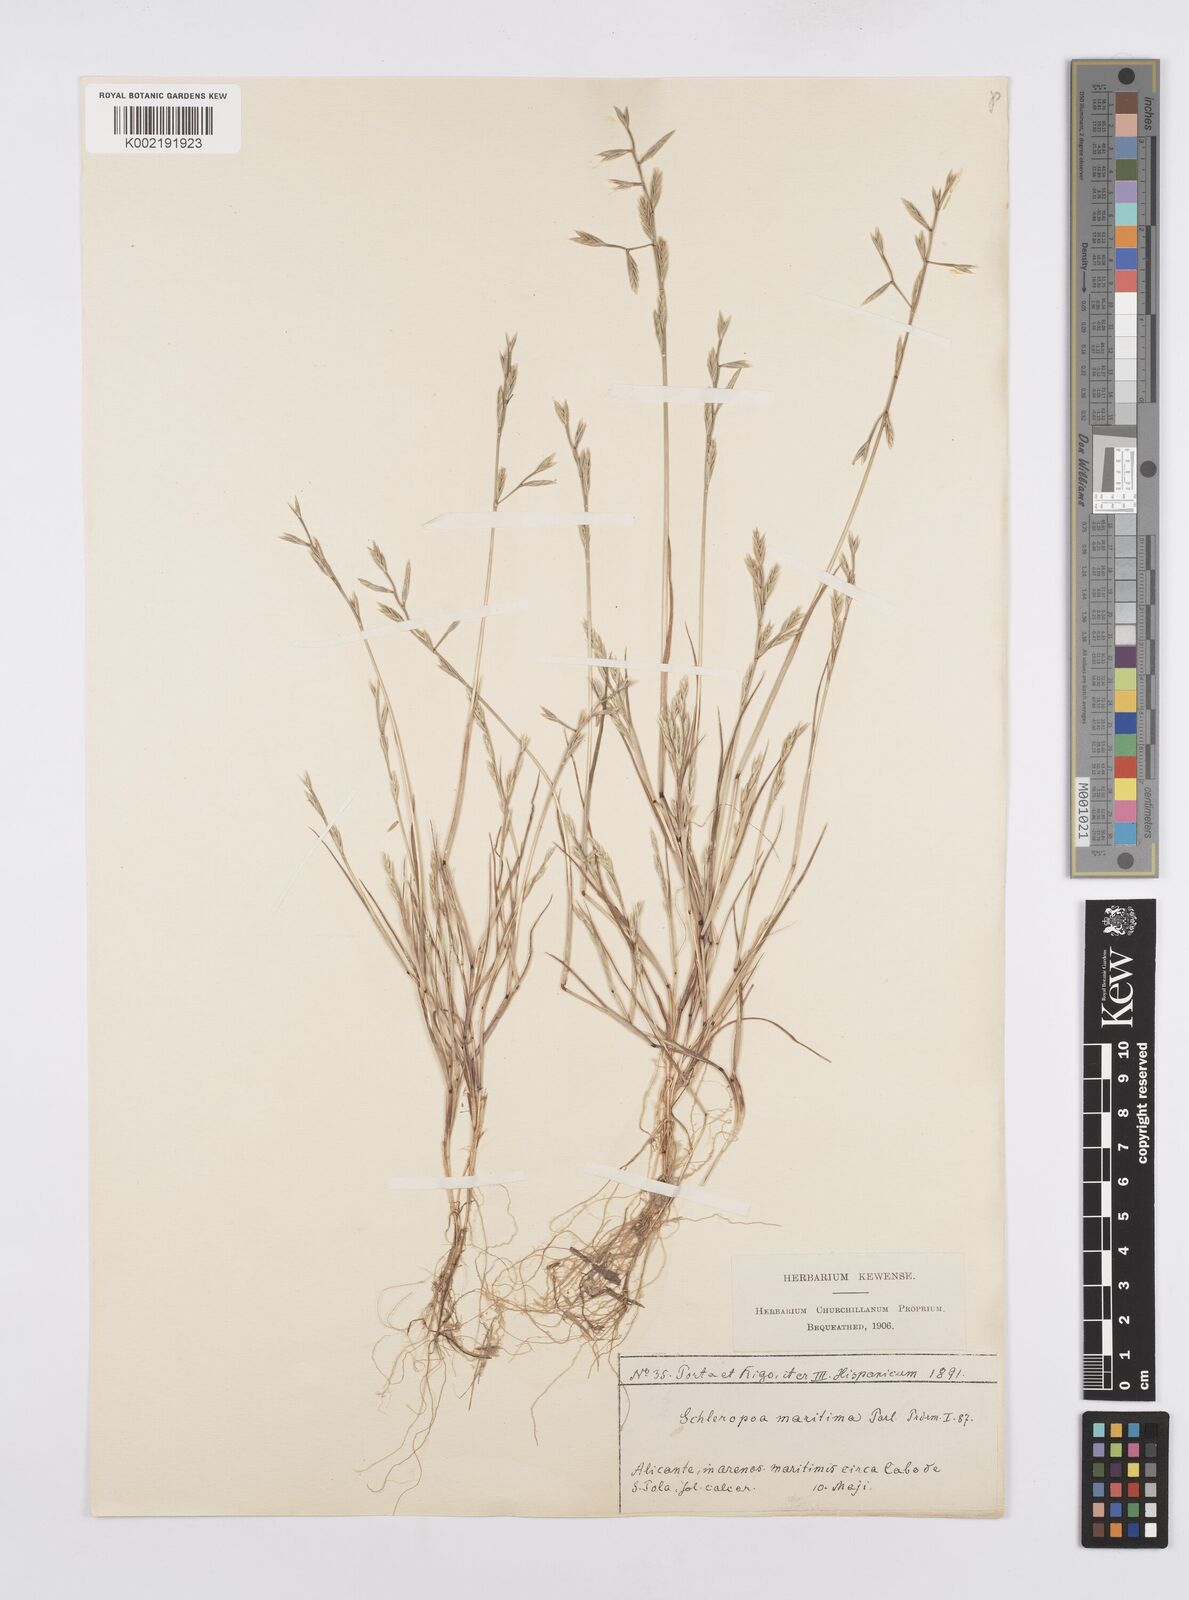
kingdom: Plantae
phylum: Tracheophyta
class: Liliopsida
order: Poales
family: Poaceae
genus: Cutandia
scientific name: Cutandia maritima
